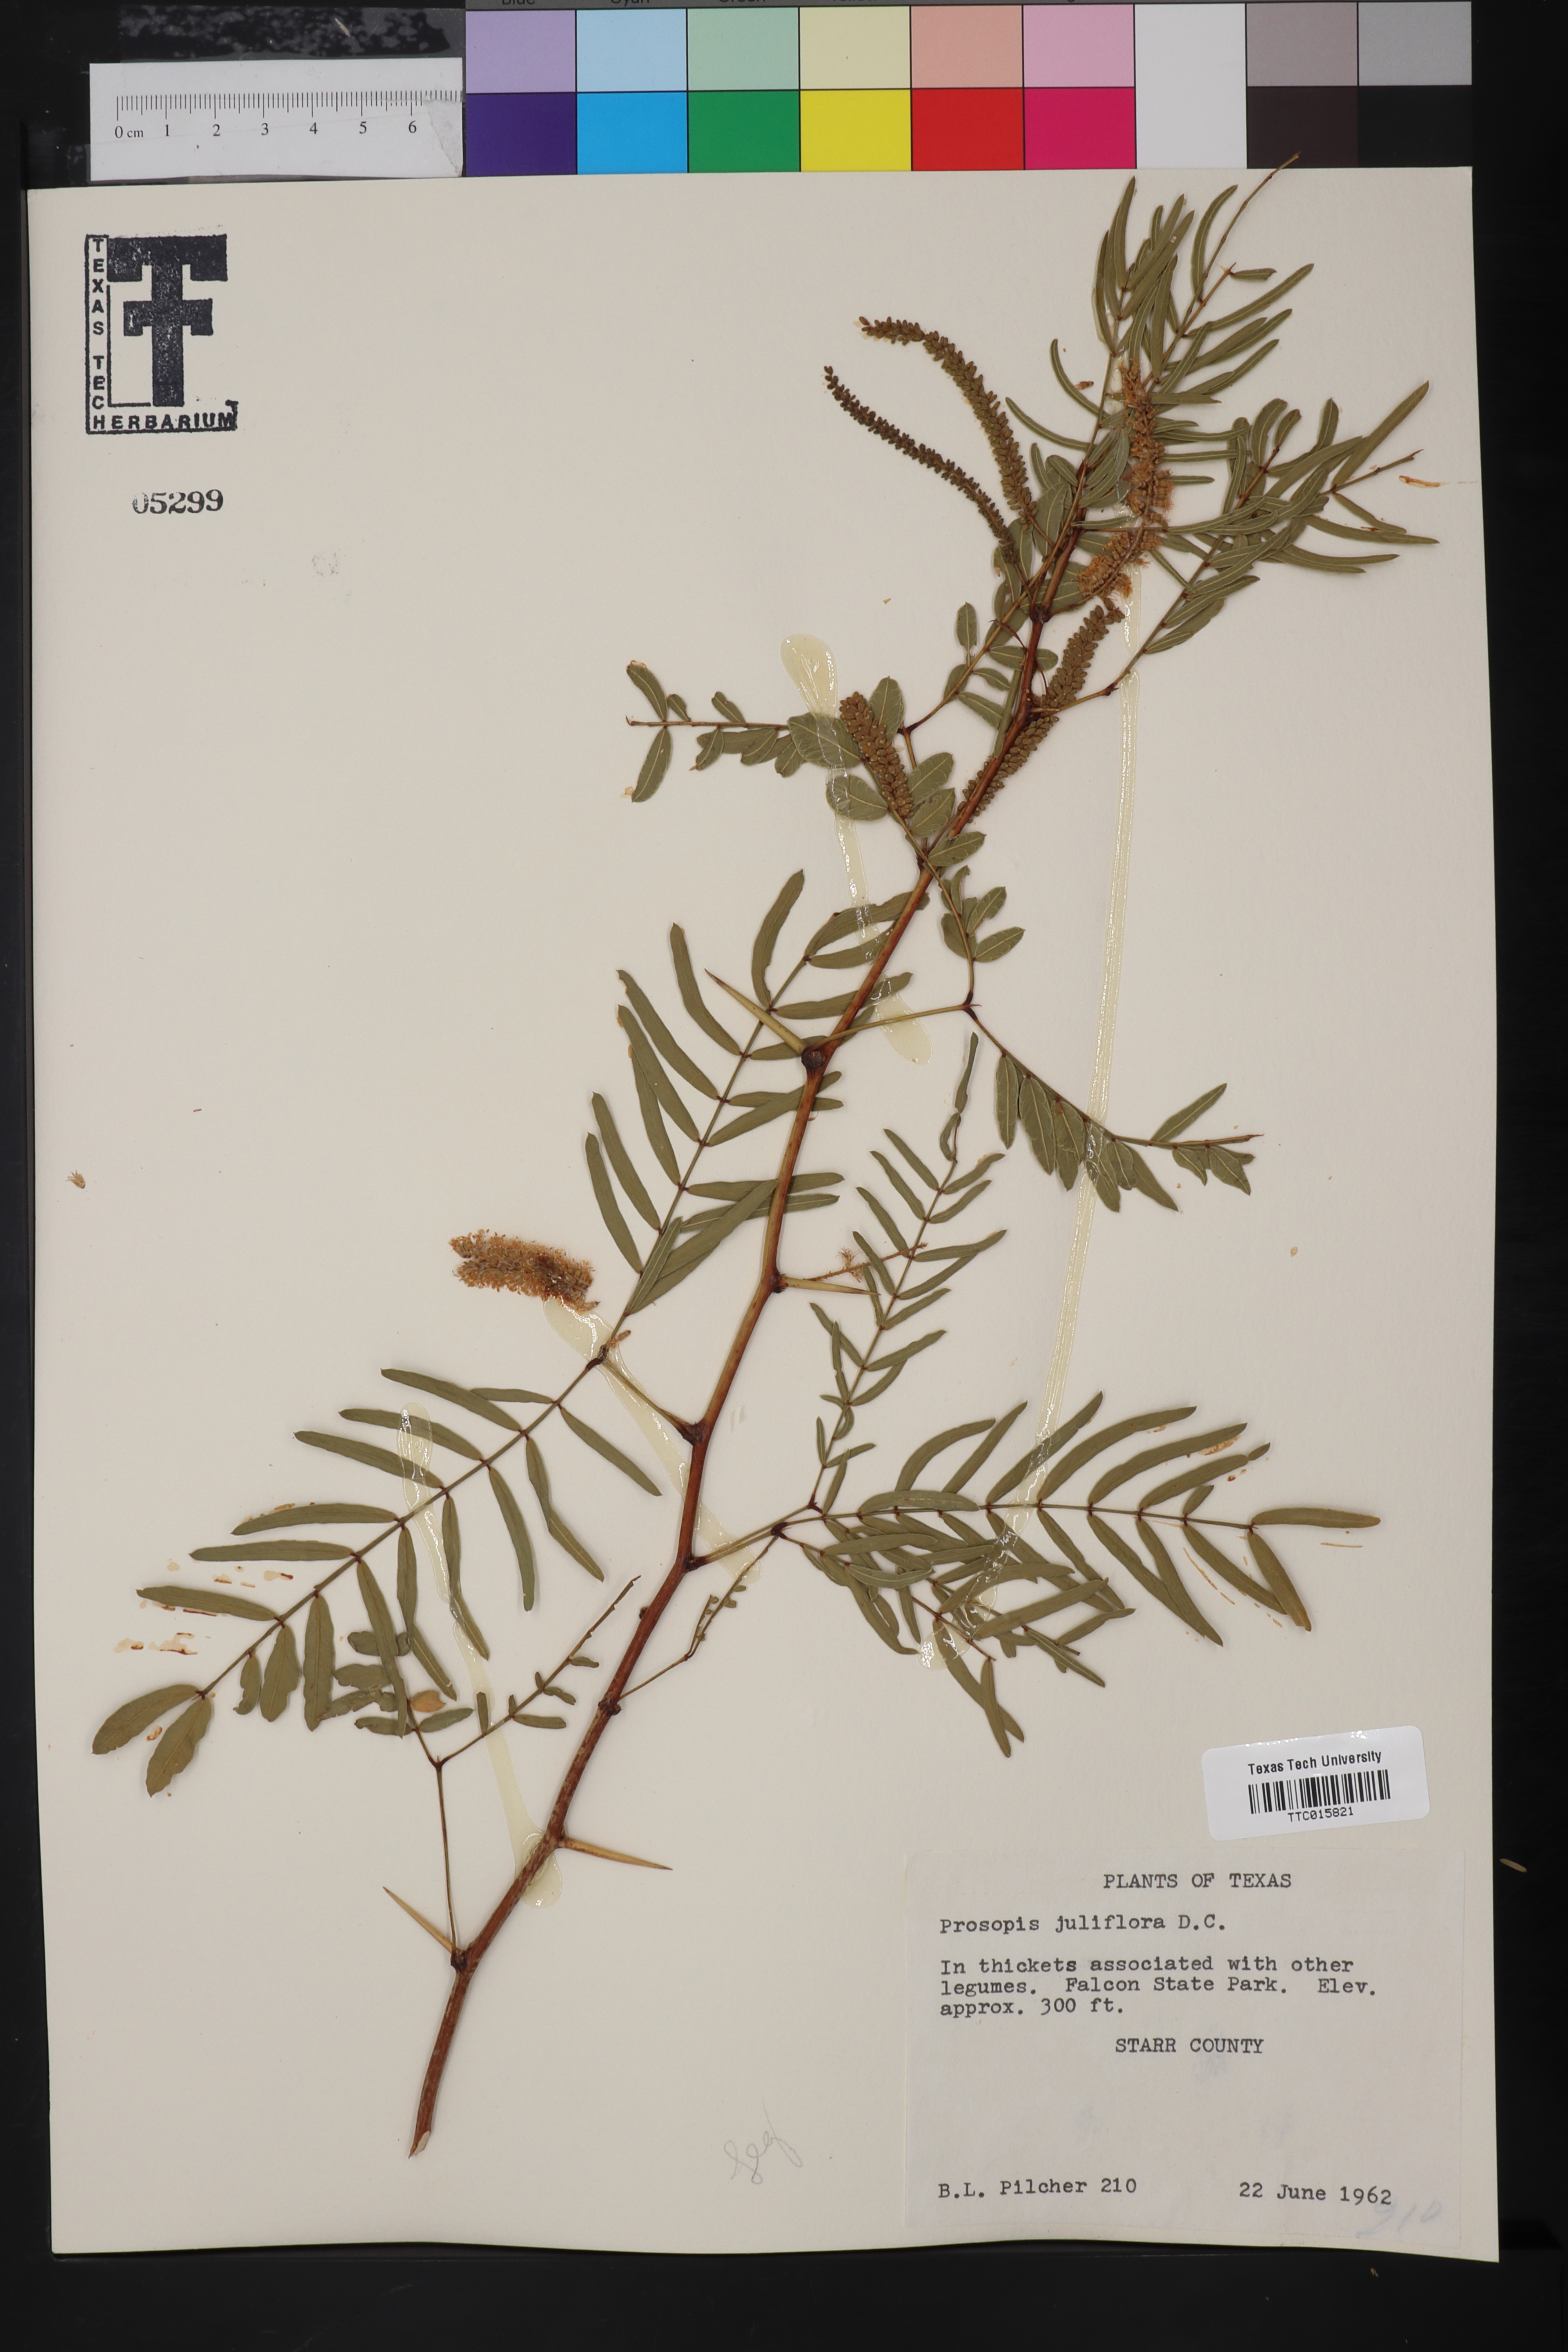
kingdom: Plantae
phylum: Tracheophyta
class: Magnoliopsida
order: Fabales
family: Fabaceae
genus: Prosopis
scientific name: Prosopis juliflora
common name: Mesquite
